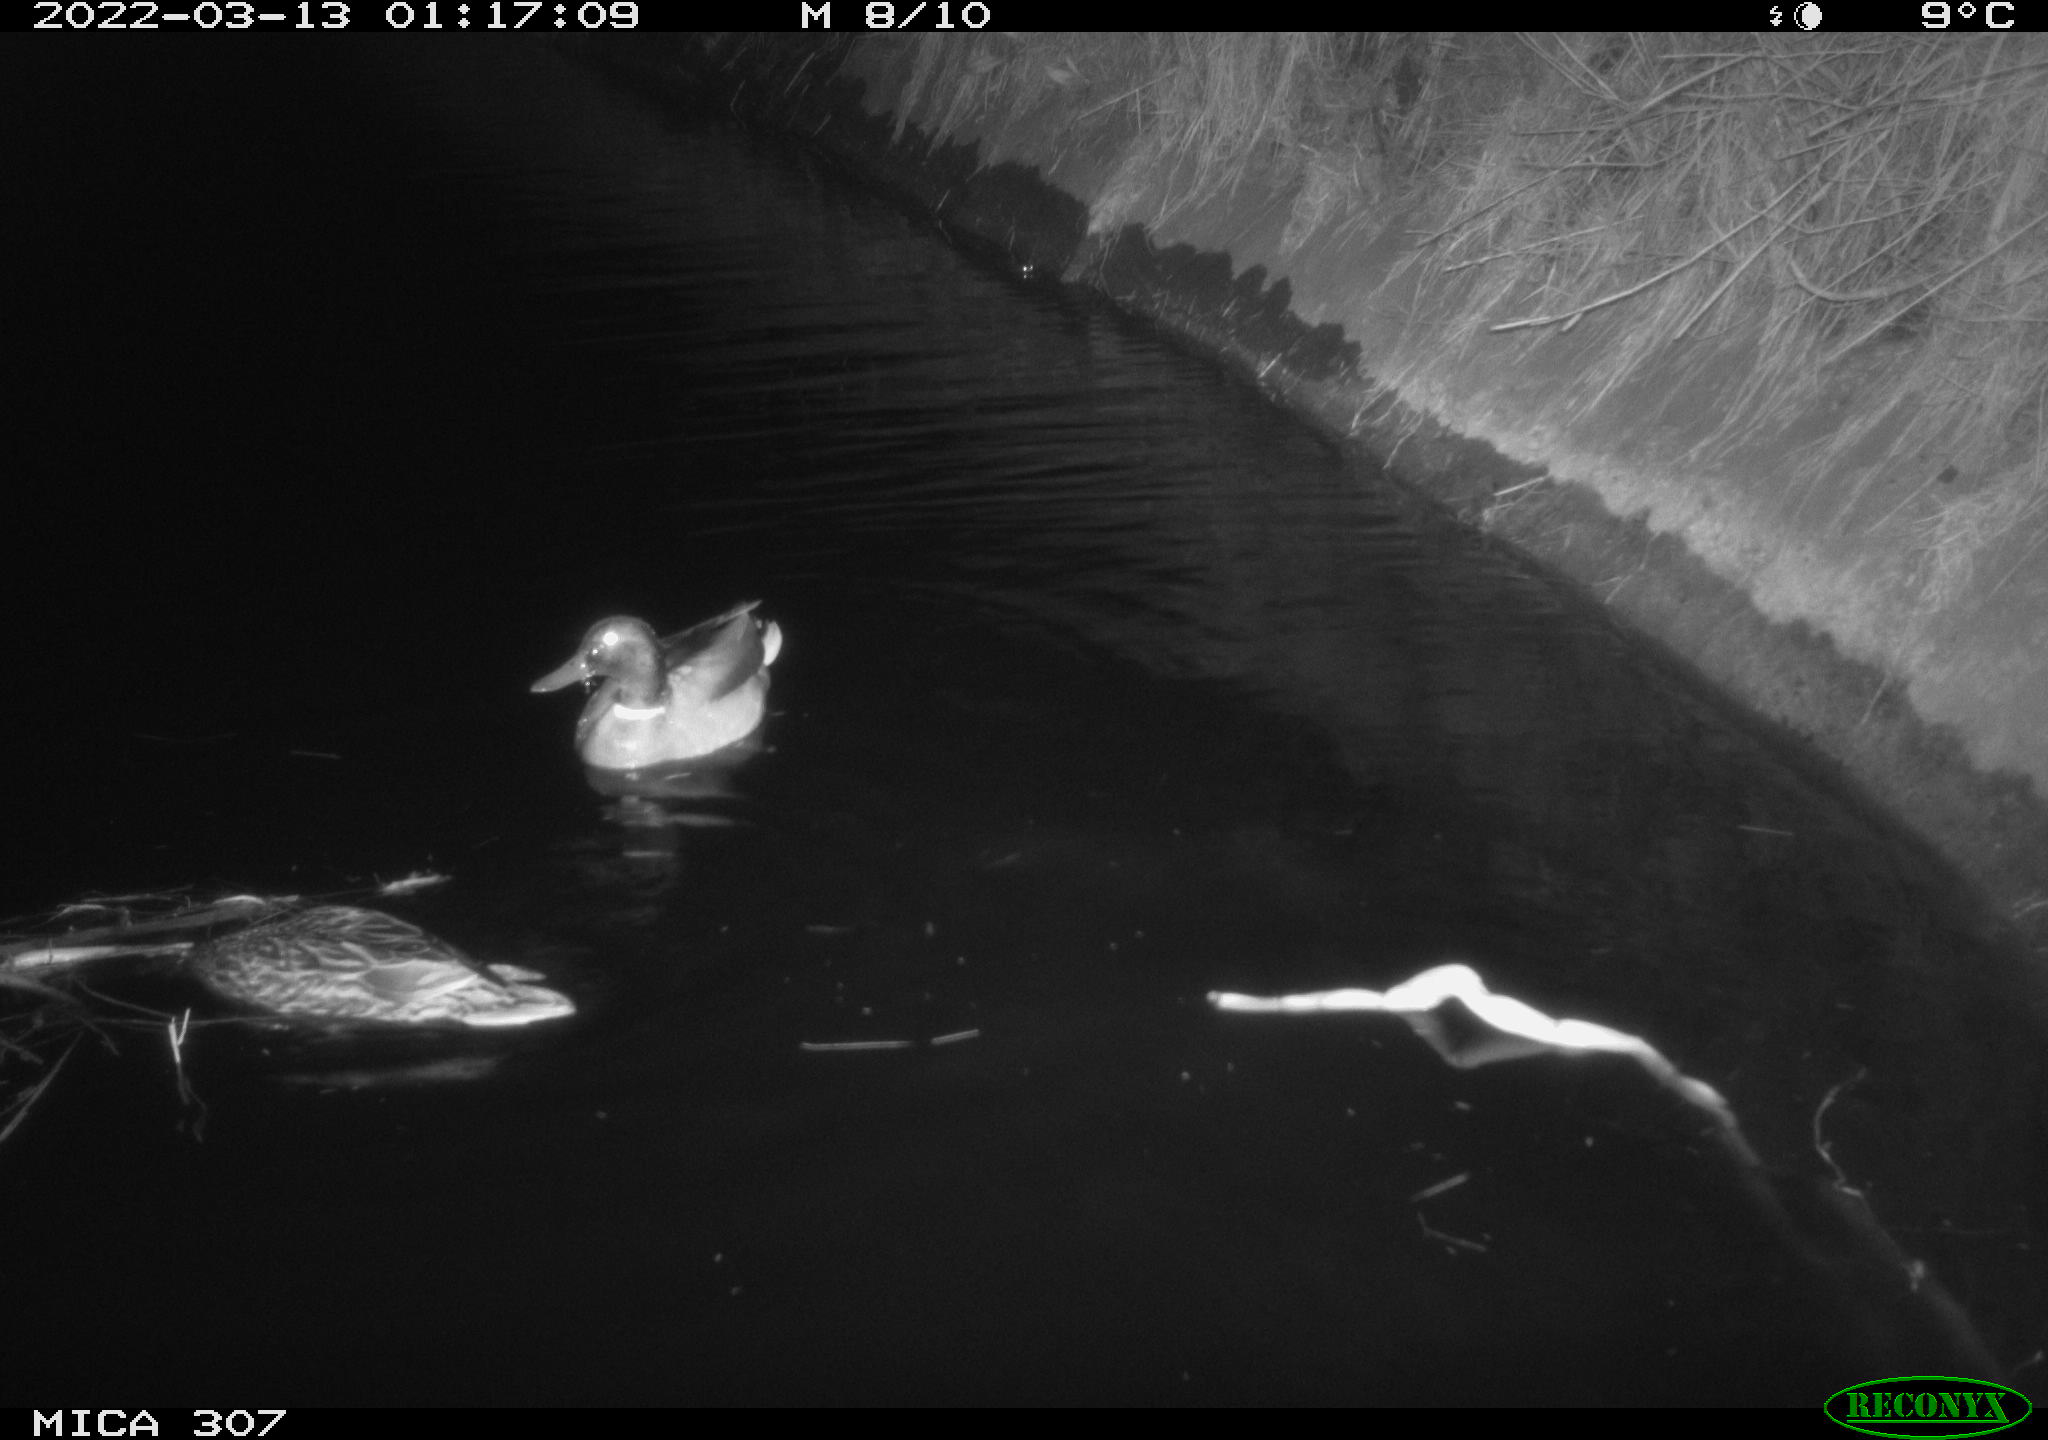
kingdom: Animalia
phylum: Chordata
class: Aves
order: Anseriformes
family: Anatidae
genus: Mareca
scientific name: Mareca strepera
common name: Gadwall
